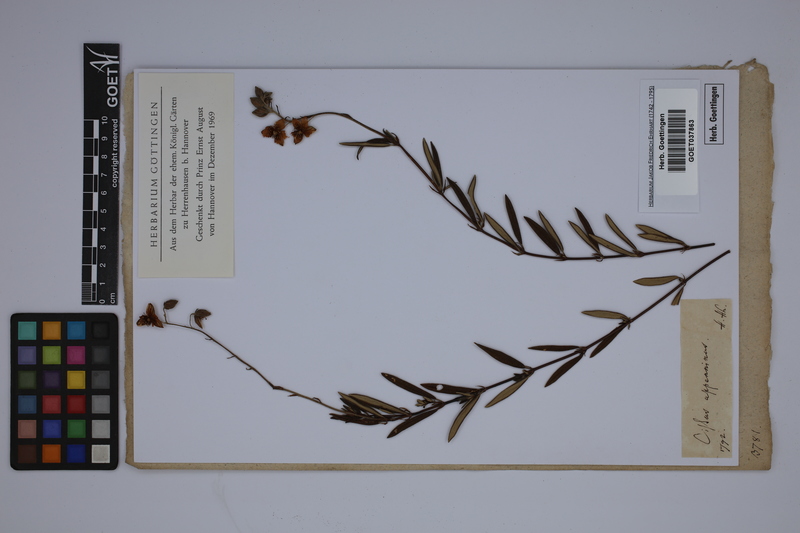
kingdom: Plantae
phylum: Tracheophyta
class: Magnoliopsida
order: Malvales
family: Cistaceae
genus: Helianthemum
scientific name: Helianthemum apenninum
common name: White rock-rose
